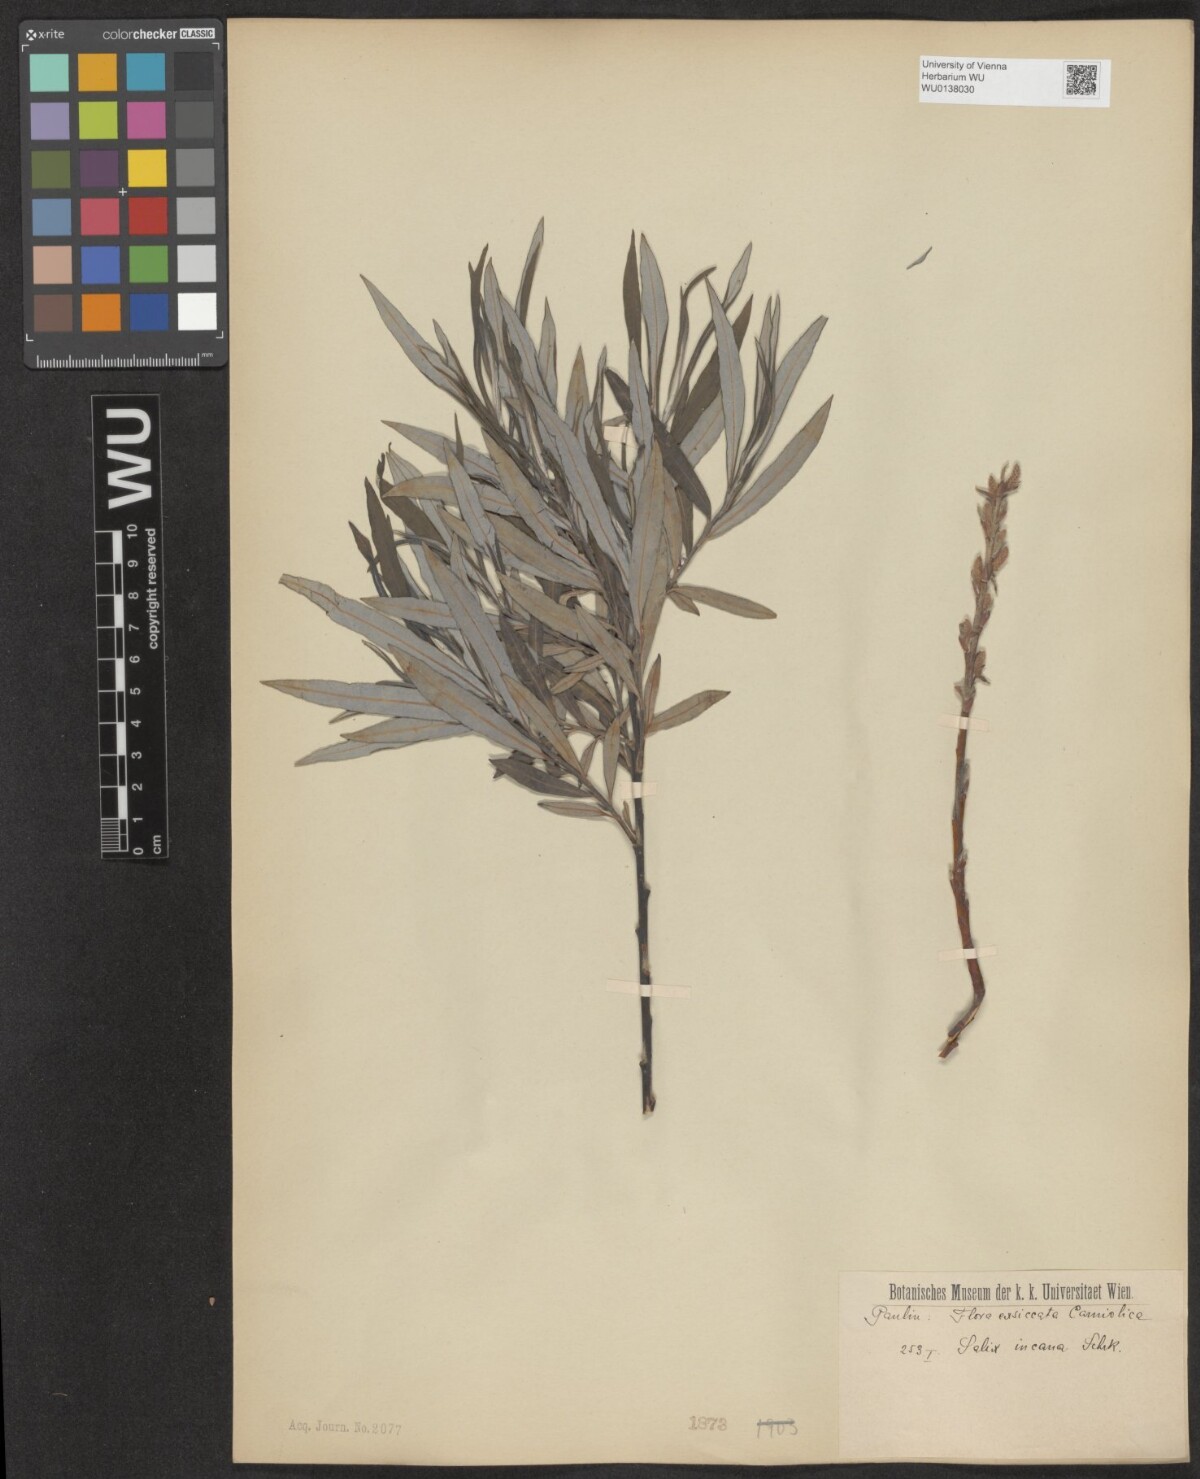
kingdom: Plantae
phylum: Tracheophyta
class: Magnoliopsida
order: Malpighiales
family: Salicaceae
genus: Salix
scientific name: Salix eleagnos
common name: Elaeagnus willow
